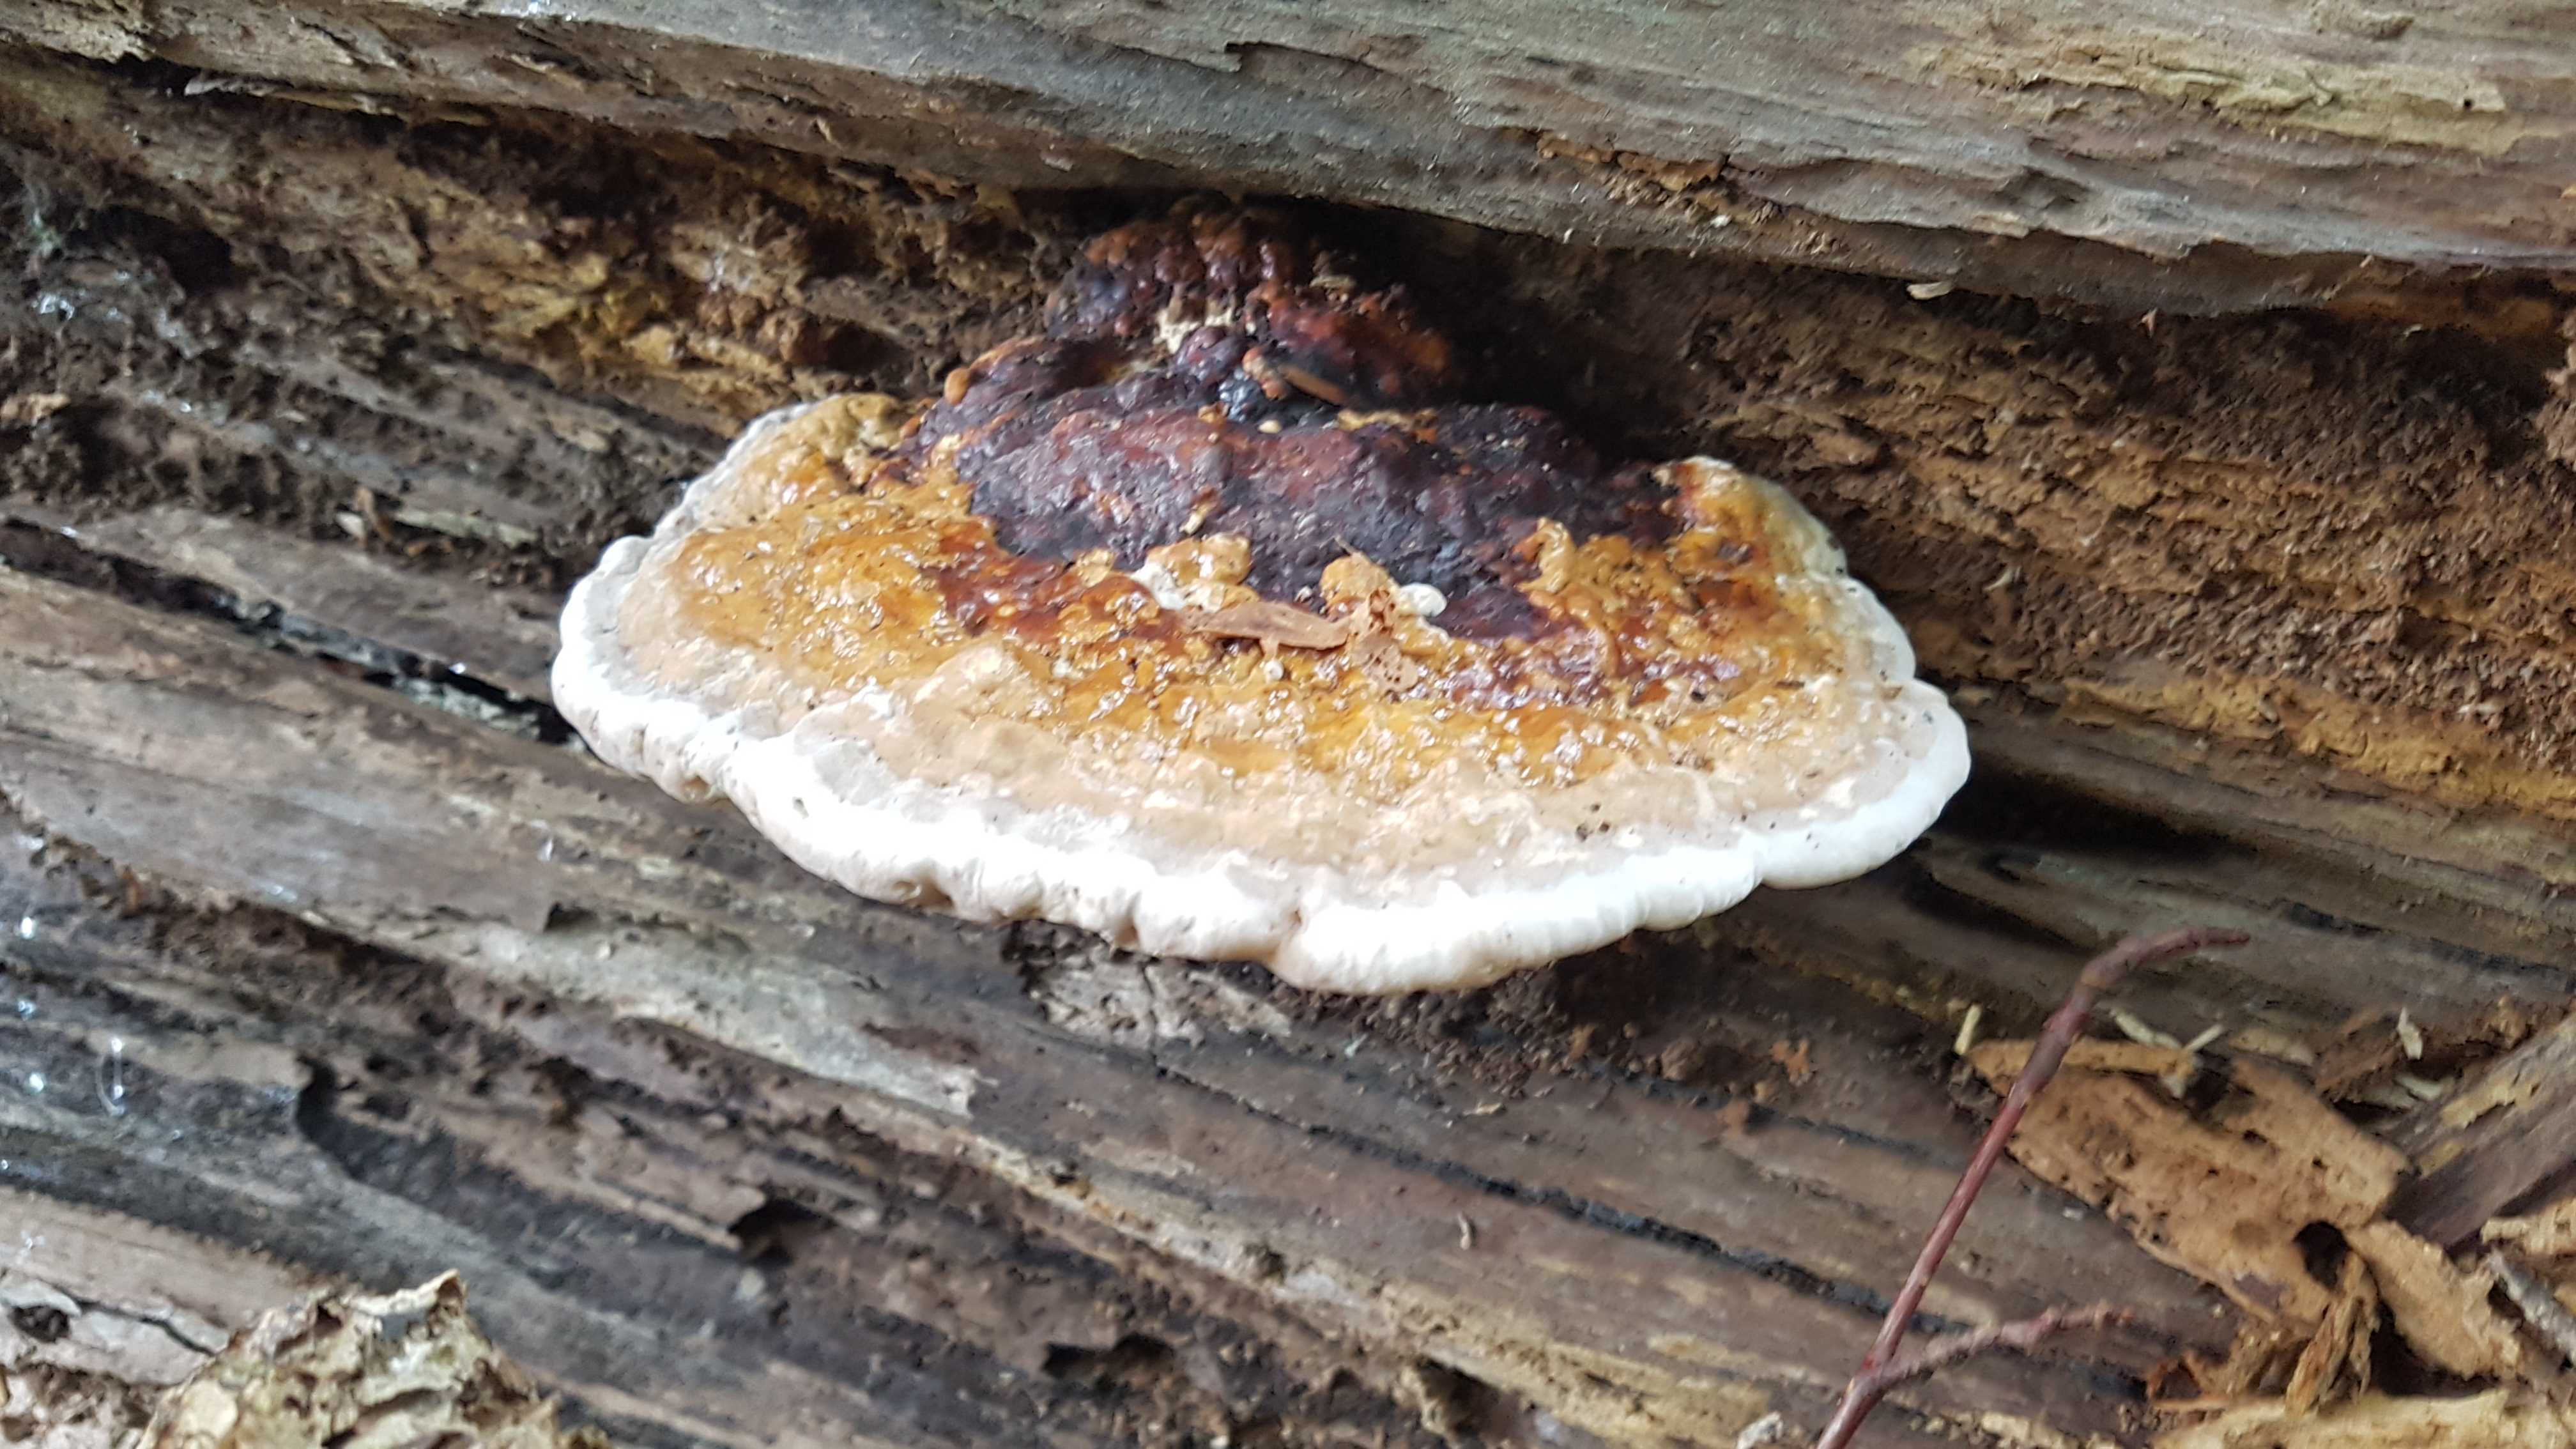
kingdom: Fungi
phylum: Basidiomycota
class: Agaricomycetes
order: Polyporales
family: Fomitopsidaceae
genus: Fomitopsis
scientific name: Fomitopsis pinicola
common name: randbæltet hovporesvamp
